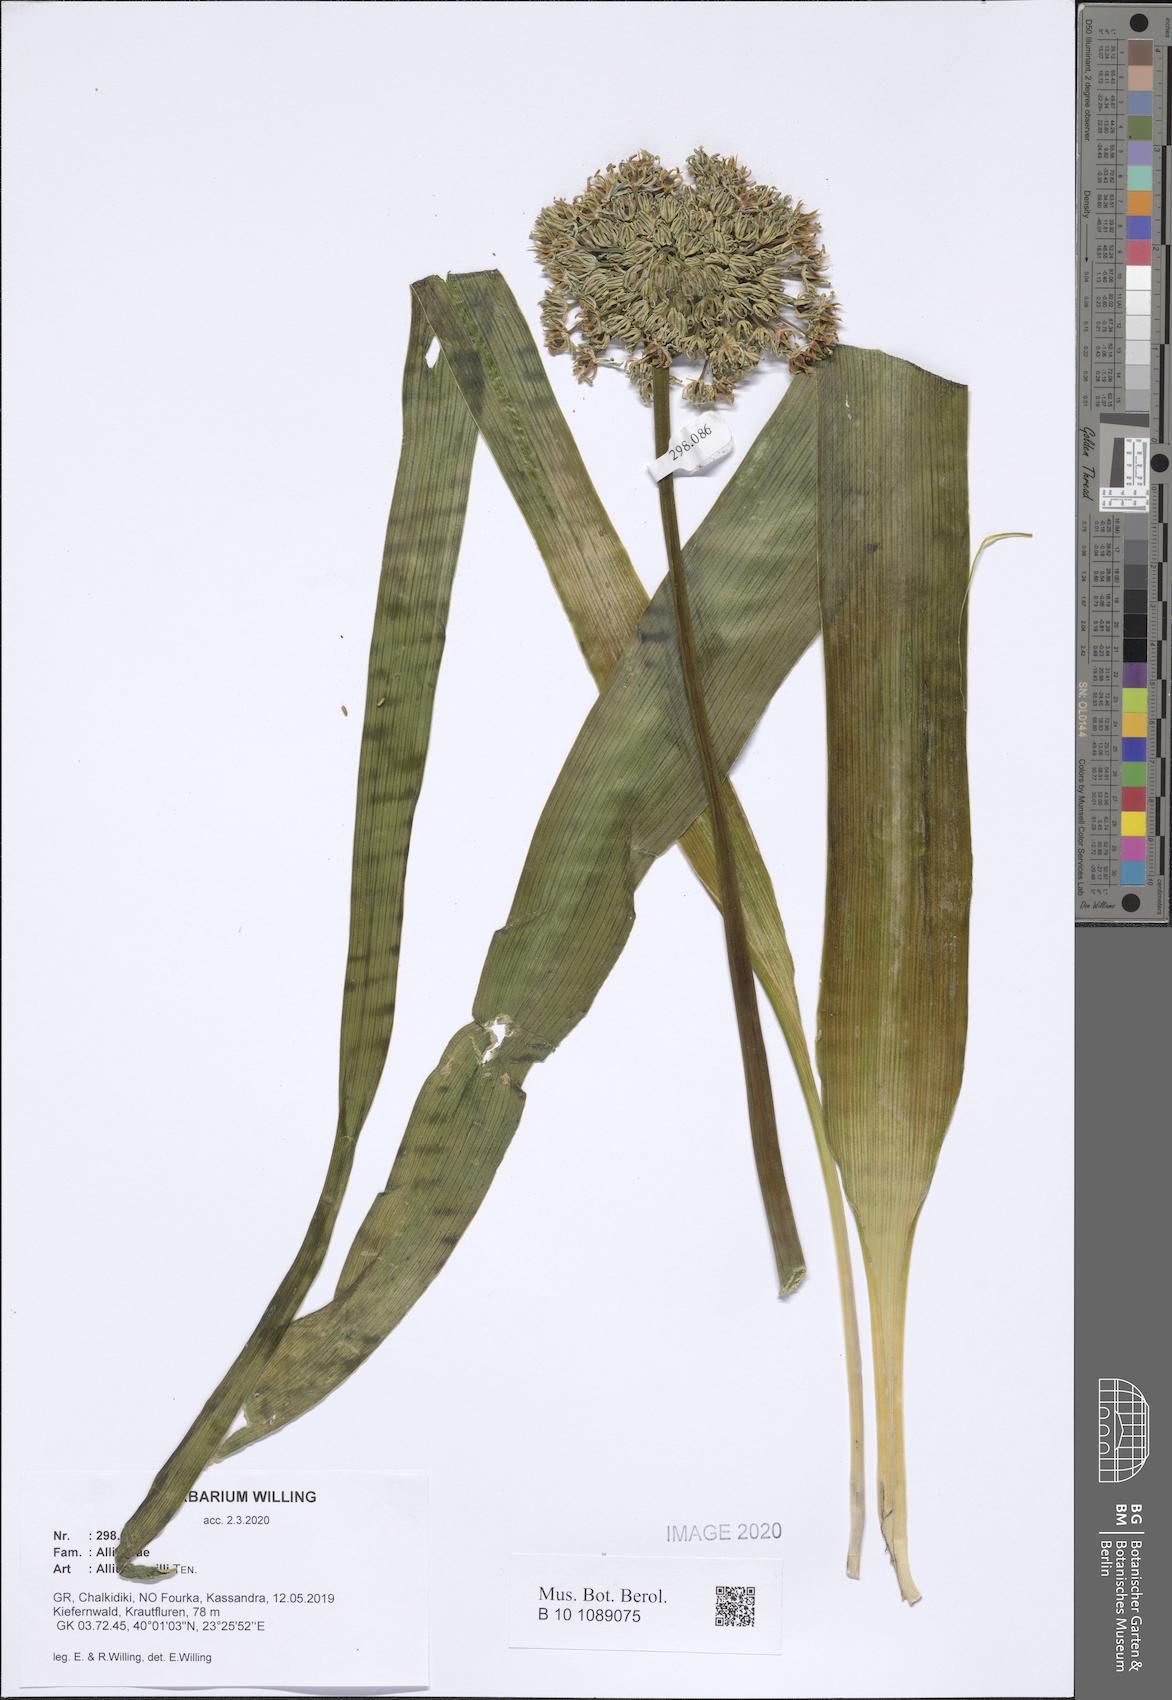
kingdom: Plantae
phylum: Tracheophyta
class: Liliopsida
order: Asparagales
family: Amaryllidaceae
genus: Allium
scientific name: Allium cyrilli
